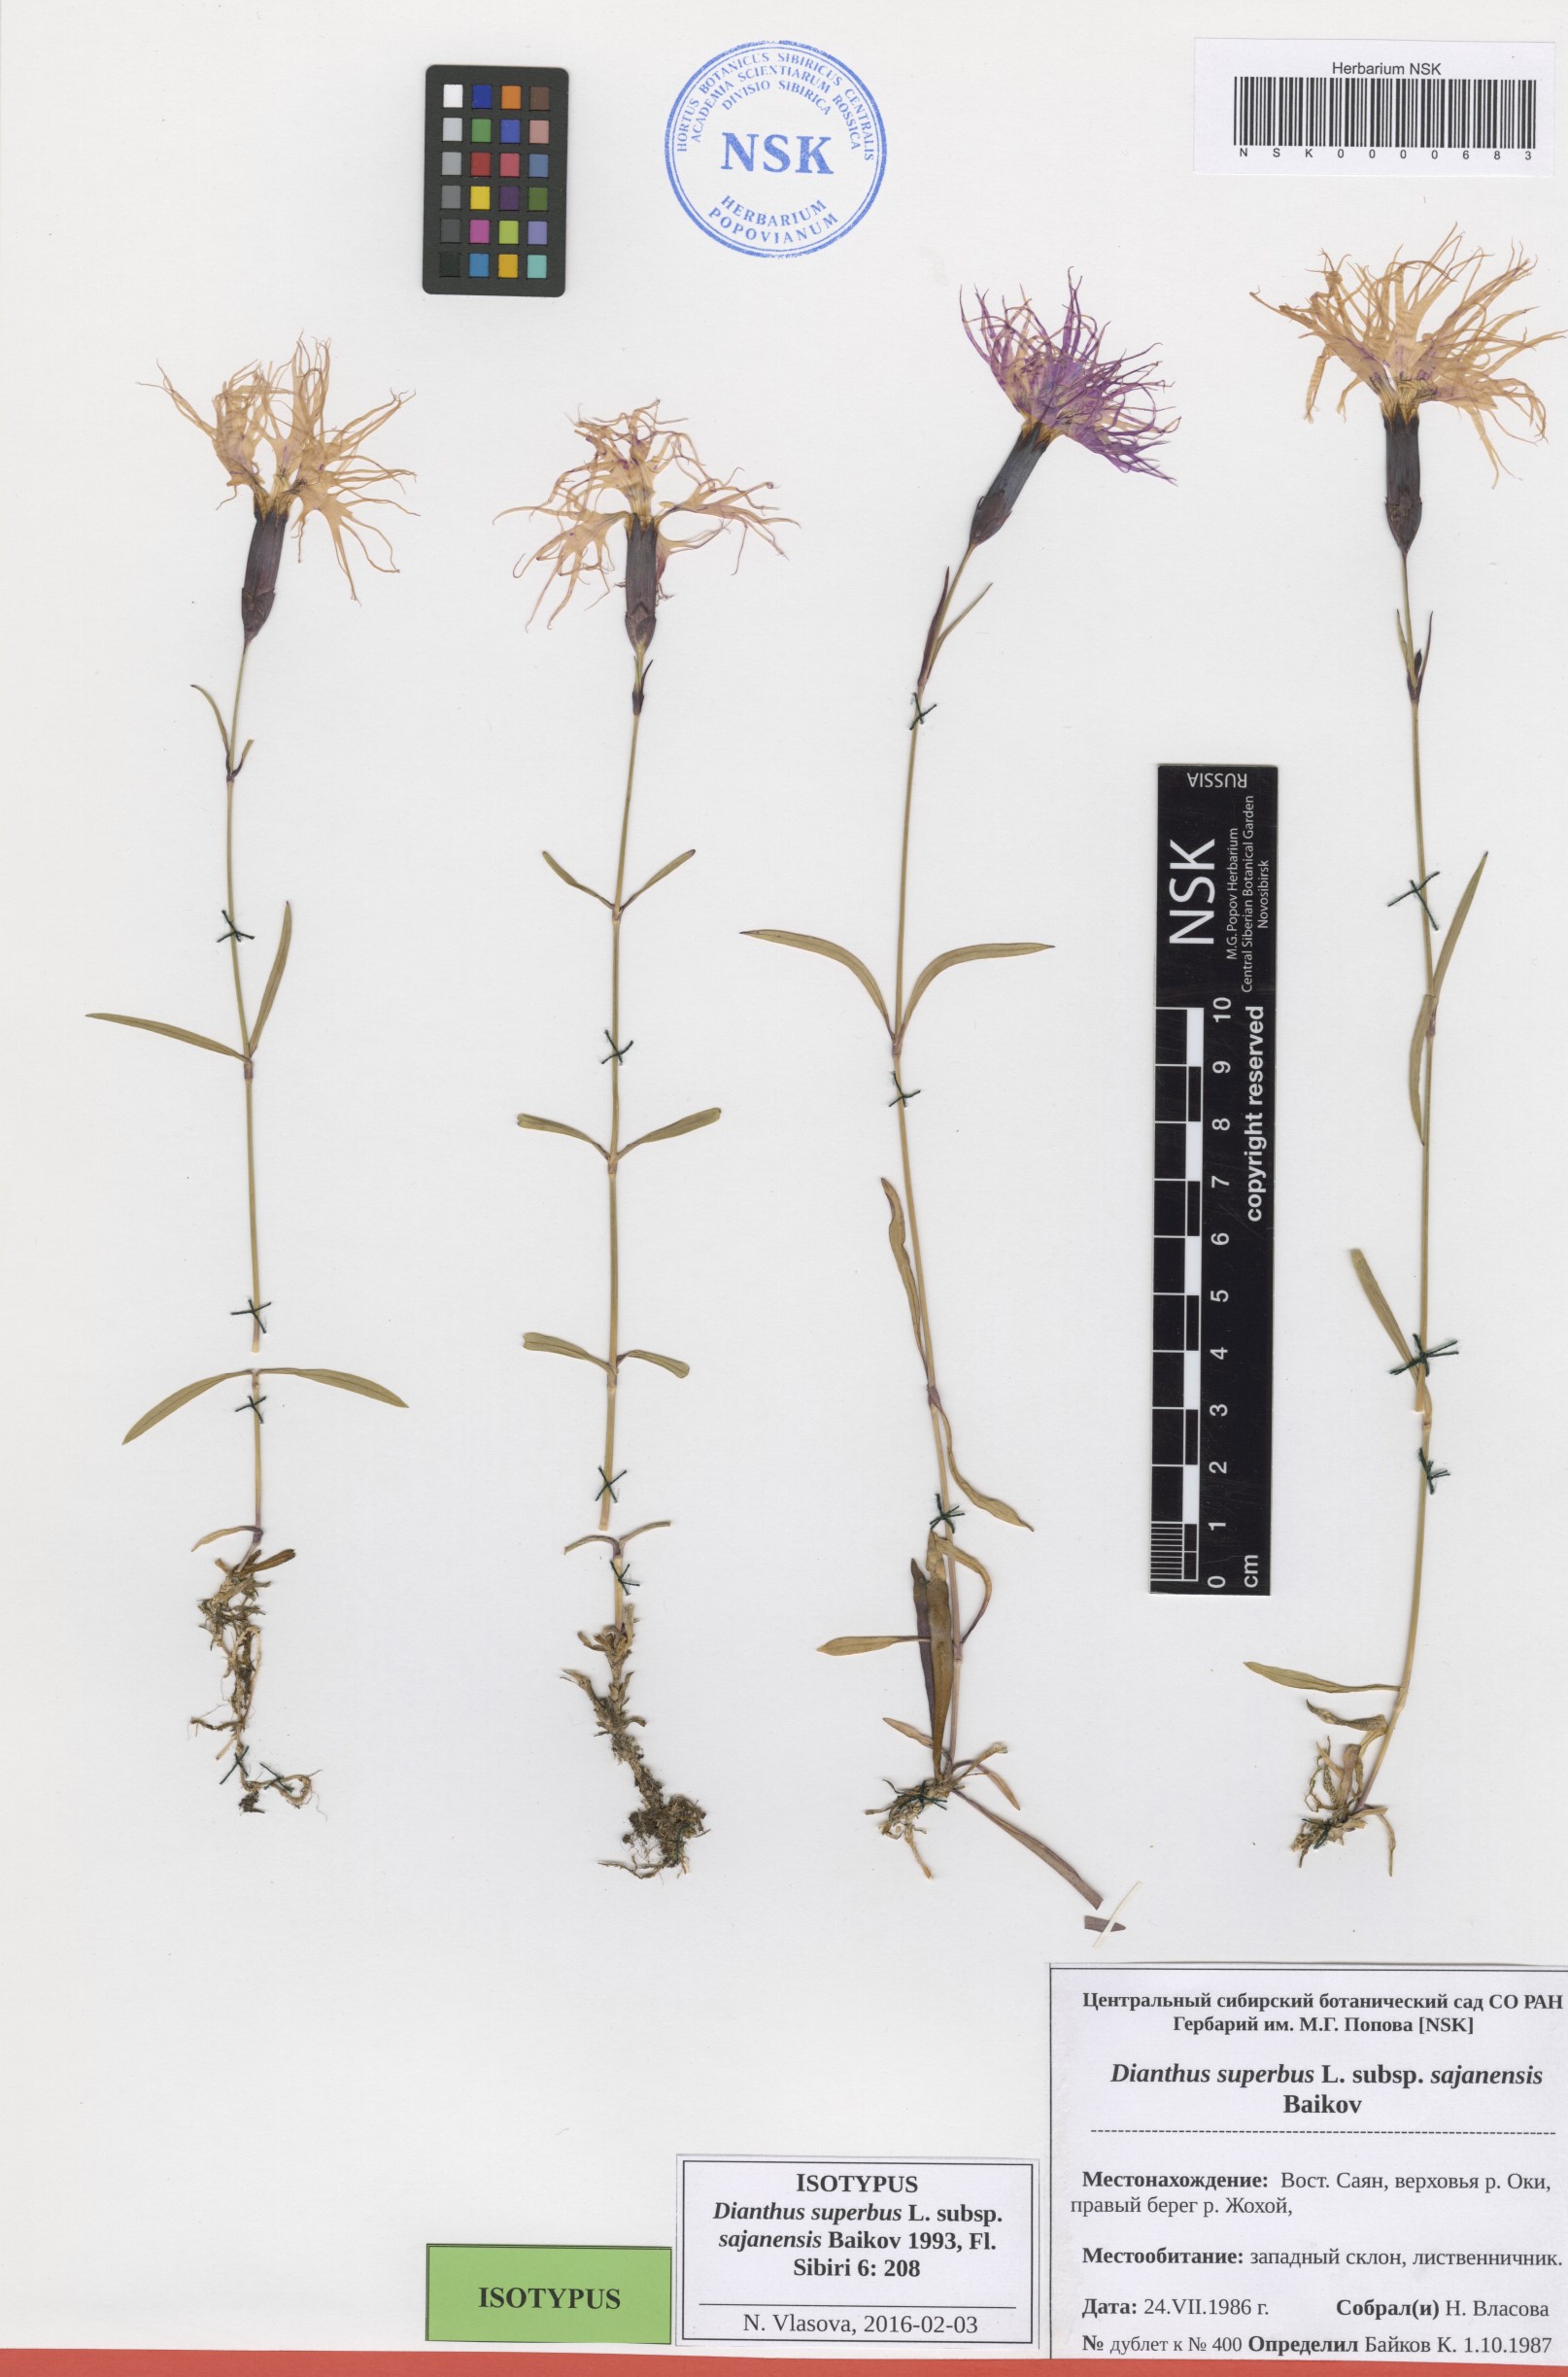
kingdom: Plantae
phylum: Tracheophyta
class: Magnoliopsida
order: Caryophyllales
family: Caryophyllaceae
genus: Dianthus
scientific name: Dianthus superbus
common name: Fringed pink
